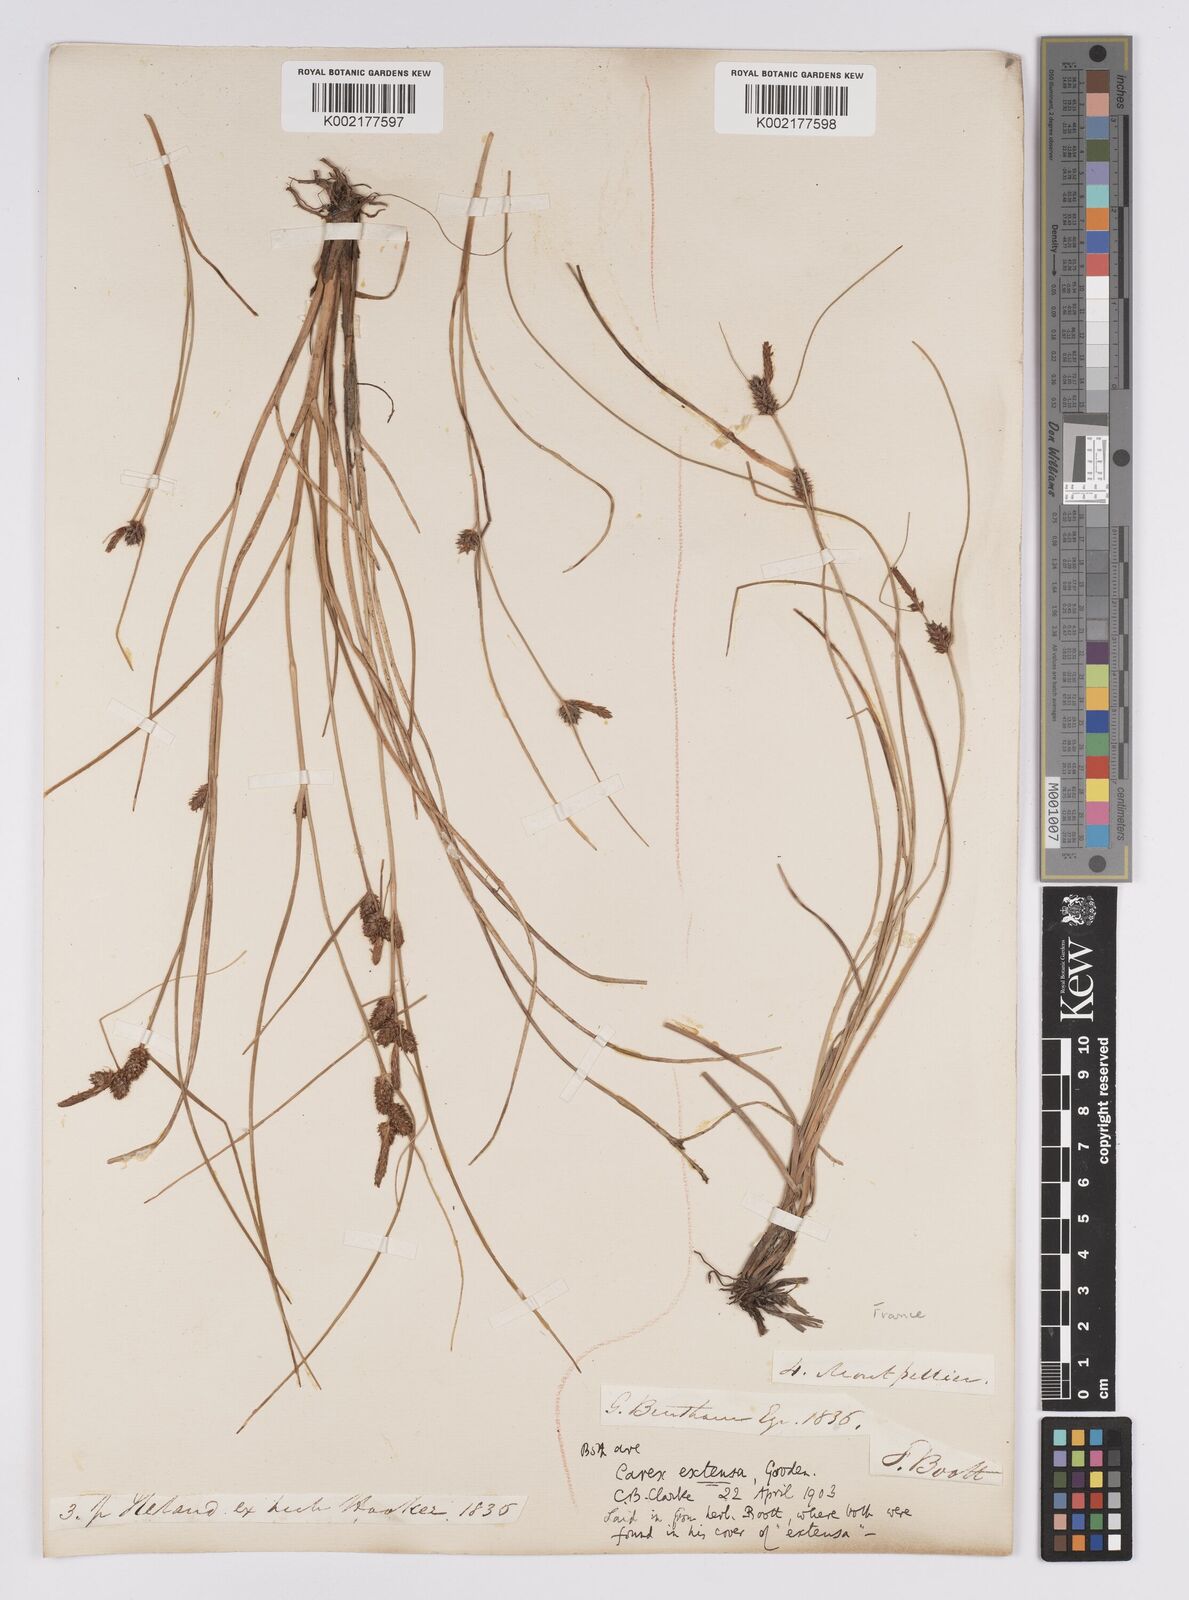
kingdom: Plantae
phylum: Tracheophyta
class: Liliopsida
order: Poales
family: Cyperaceae
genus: Carex
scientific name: Carex extensa
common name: Long-bracted sedge
